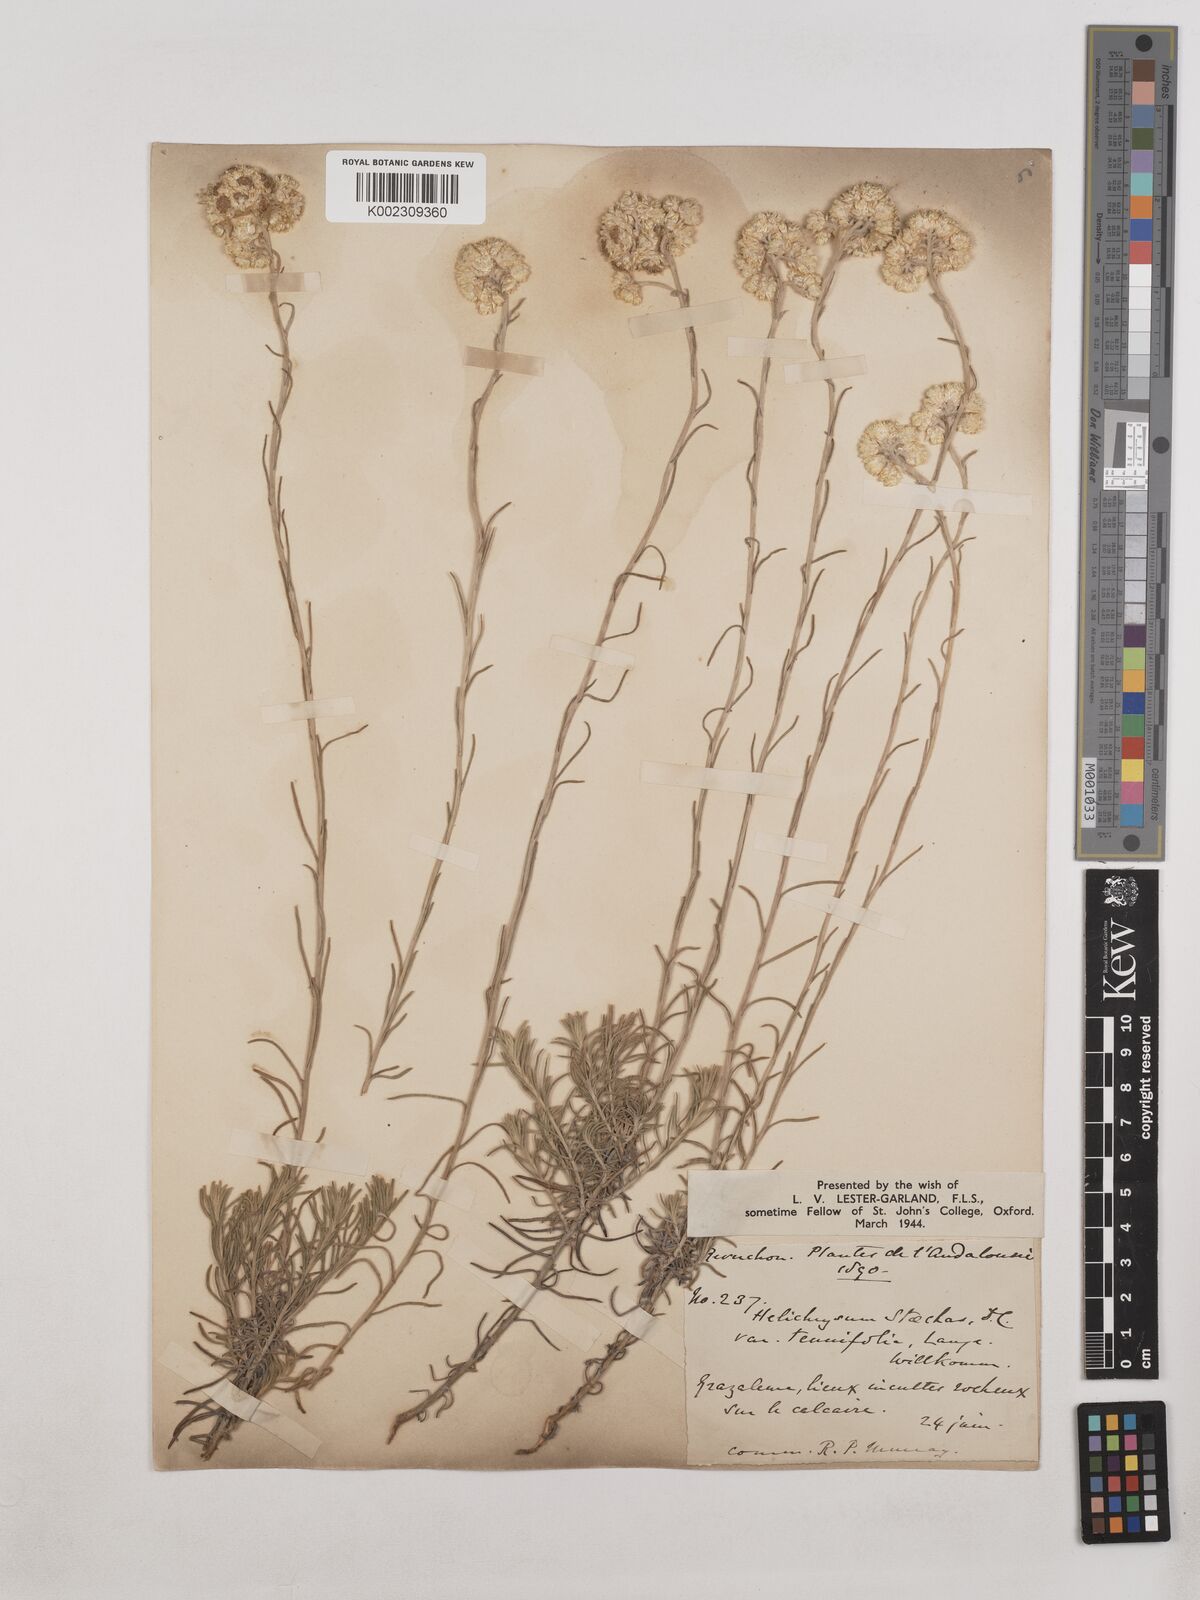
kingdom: Plantae
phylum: Tracheophyta
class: Magnoliopsida
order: Asterales
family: Asteraceae
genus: Helichrysum
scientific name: Helichrysum
